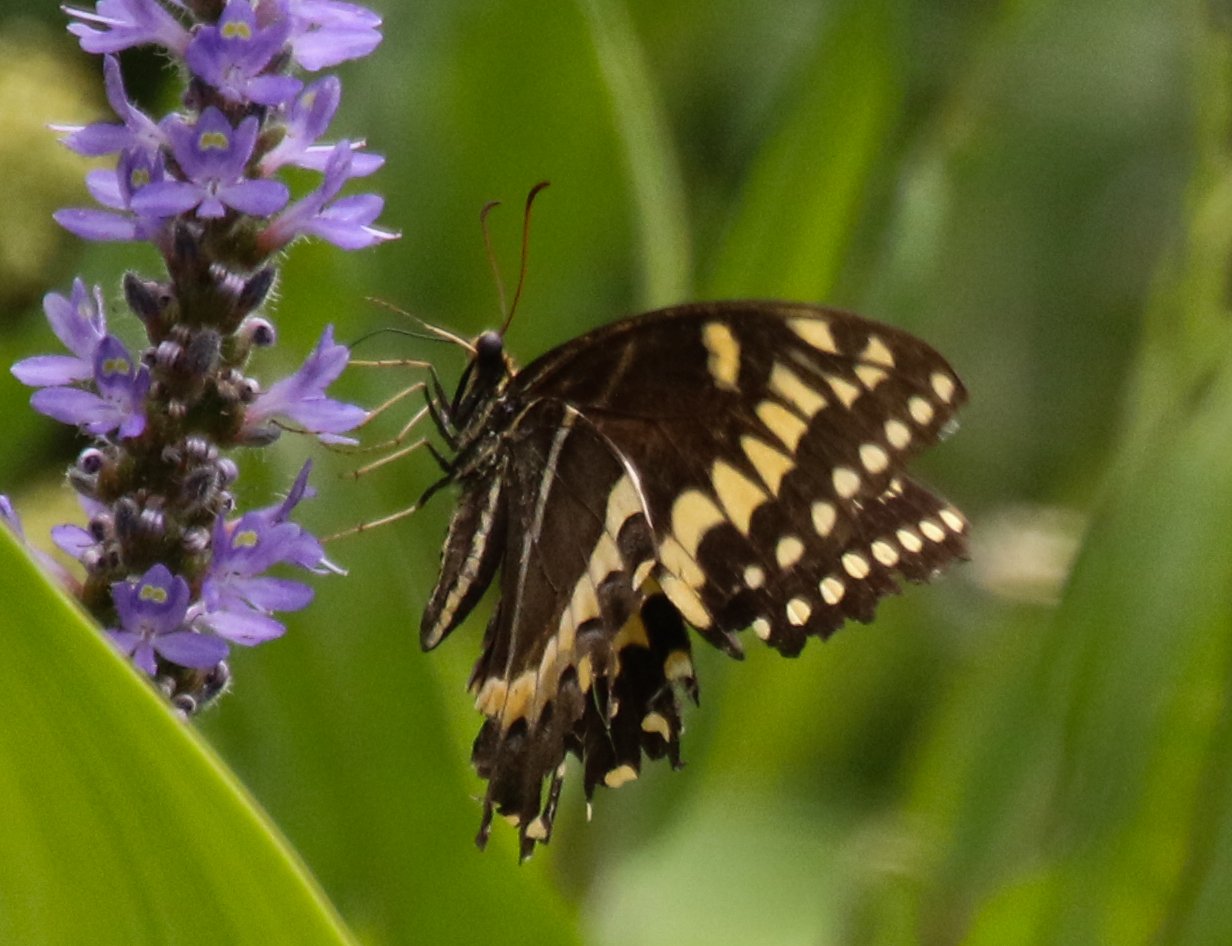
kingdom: Animalia
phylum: Arthropoda
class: Insecta
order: Lepidoptera
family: Papilionidae
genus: Pterourus
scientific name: Pterourus palamedes
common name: Palamedes Swallowtail
